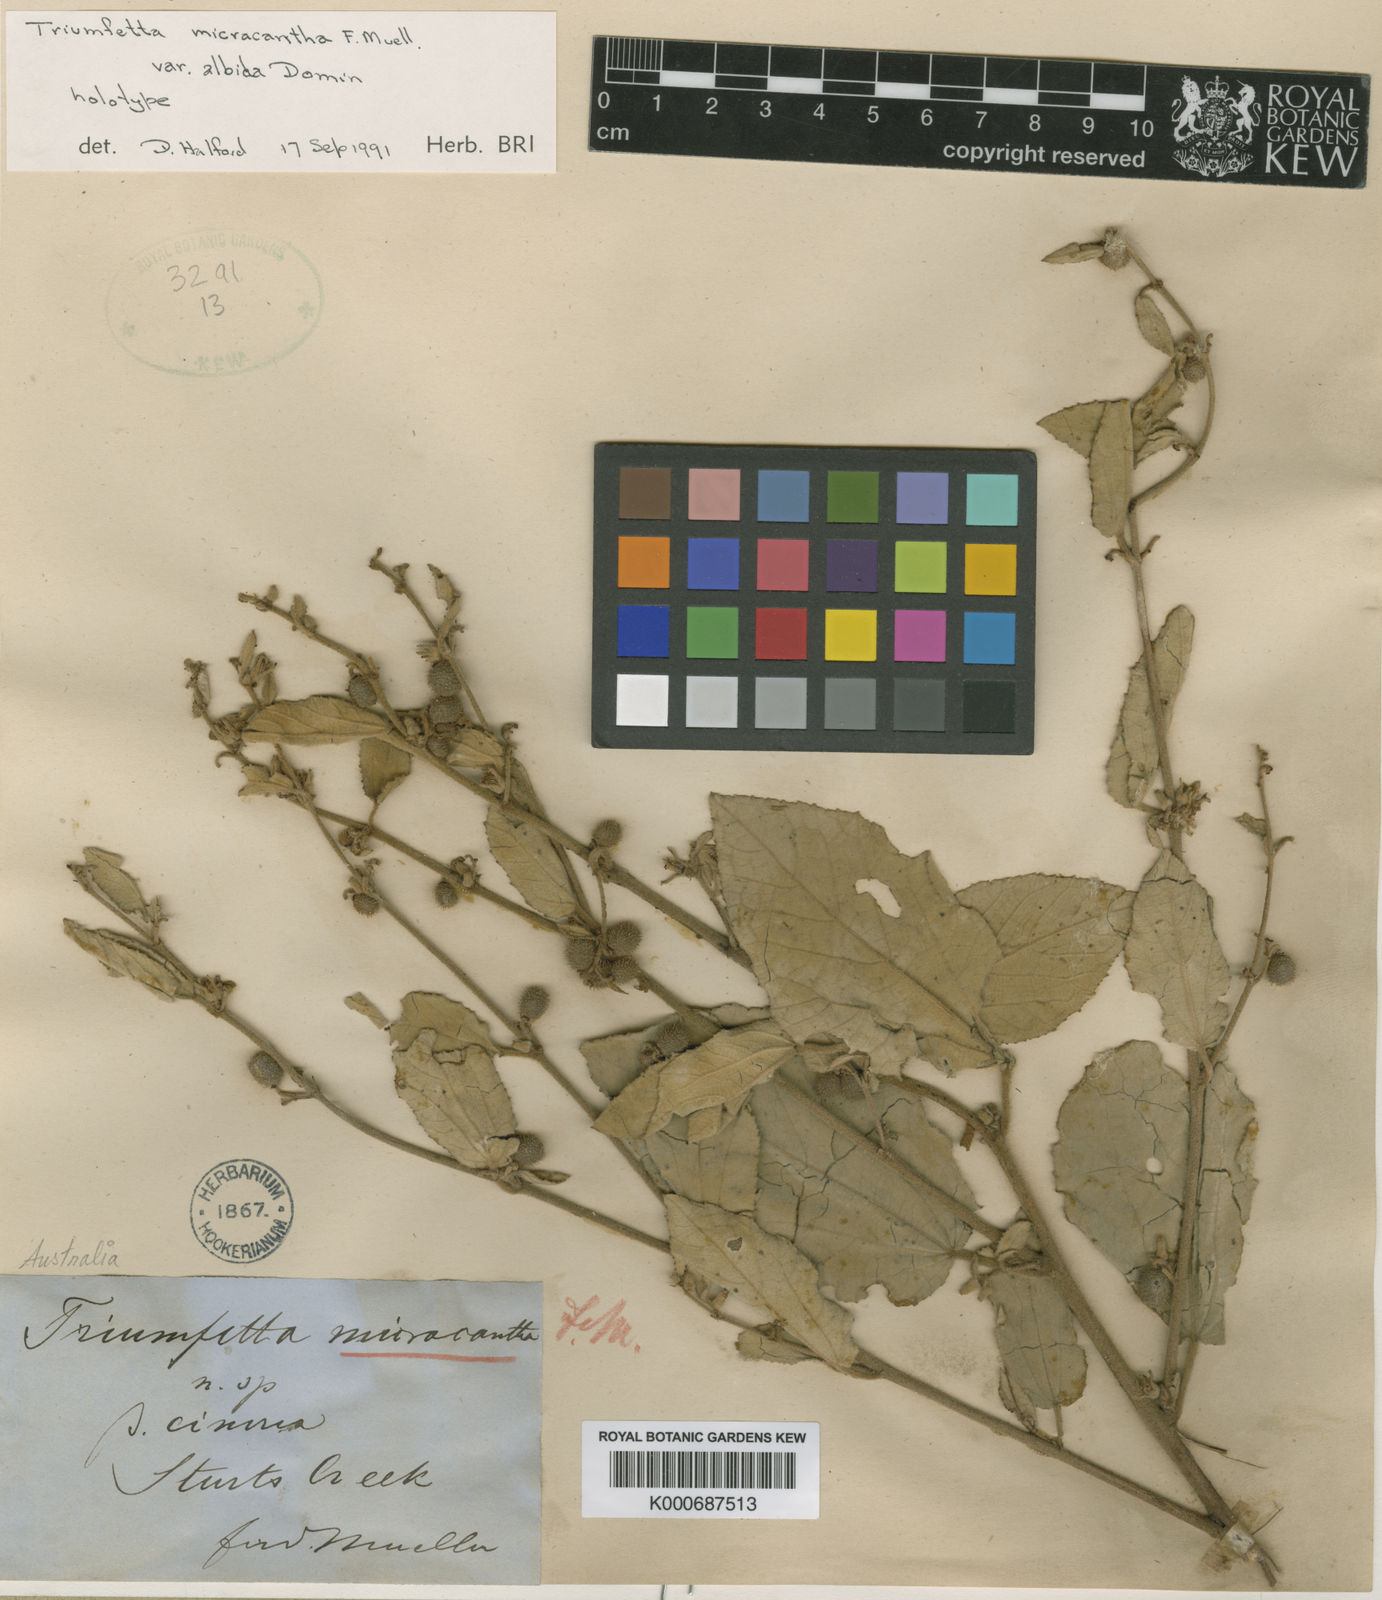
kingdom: Plantae
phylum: Tracheophyta
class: Magnoliopsida
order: Malvales
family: Malvaceae
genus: Triumfetta
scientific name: Triumfetta albida
